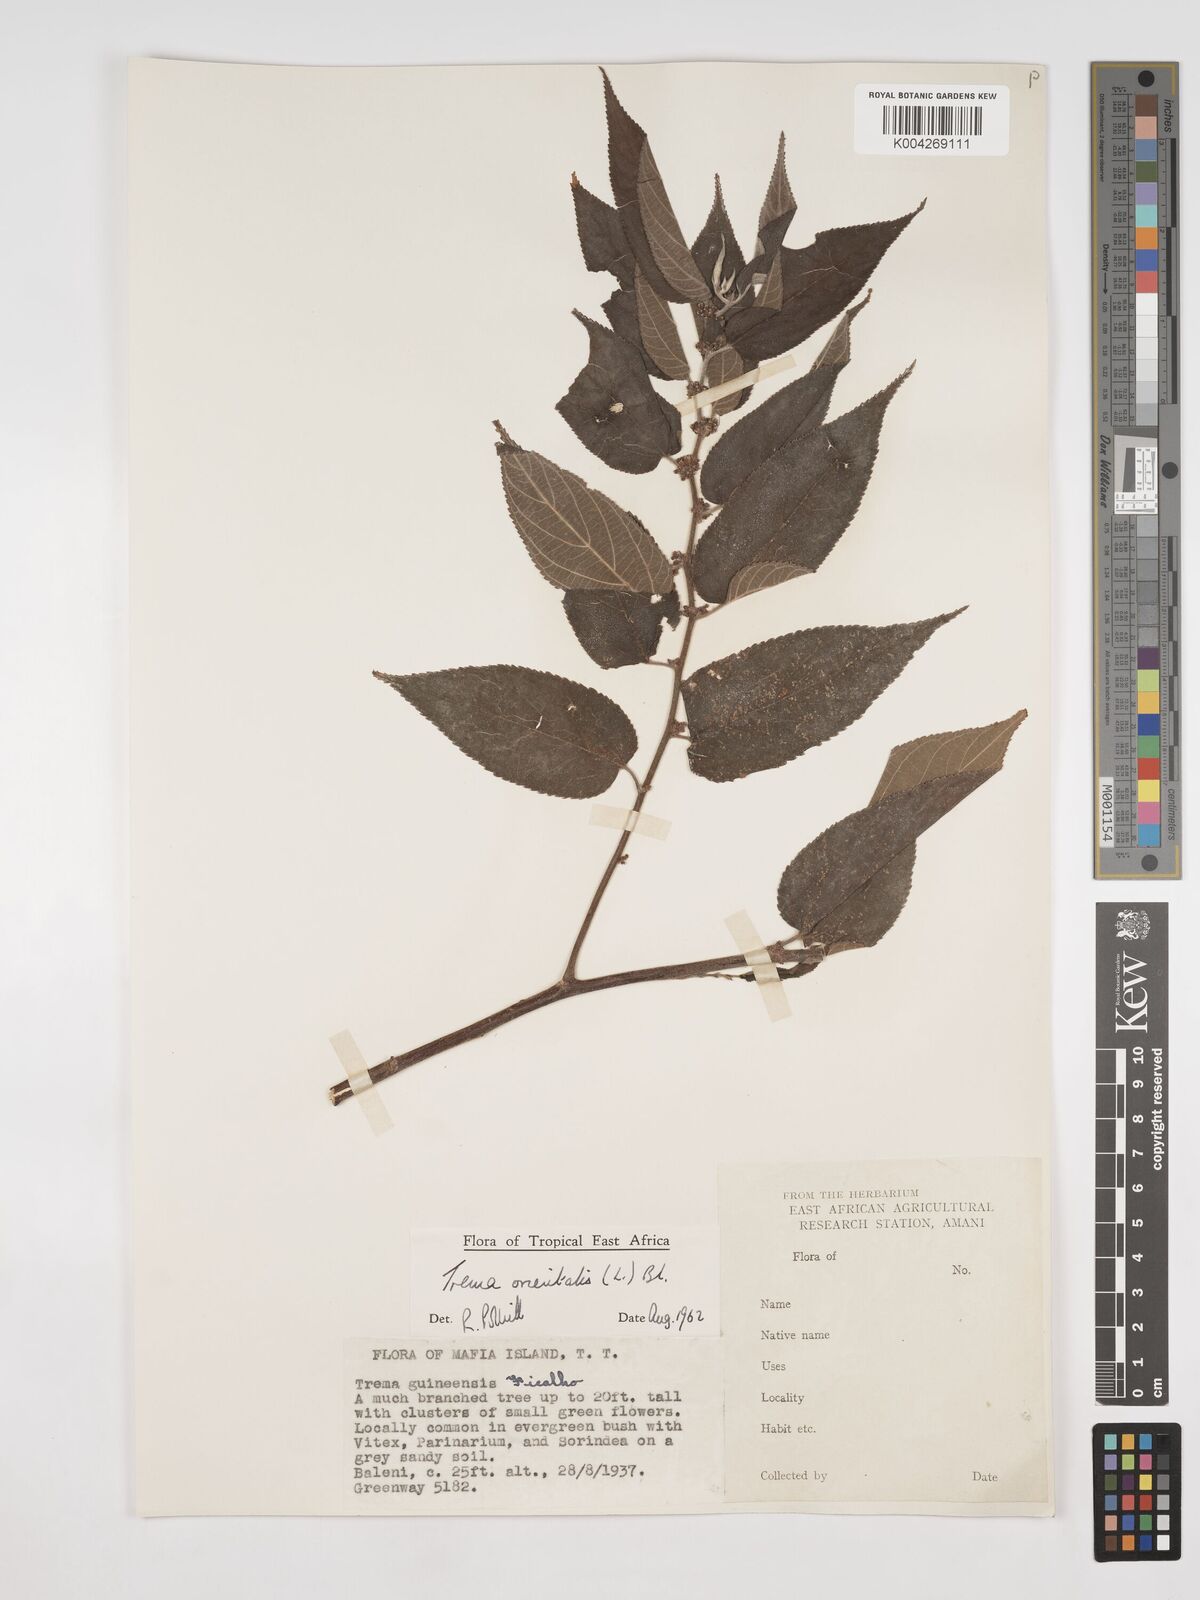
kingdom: Plantae
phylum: Tracheophyta
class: Magnoliopsida
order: Rosales
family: Cannabaceae
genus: Trema
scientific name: Trema orientale
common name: Indian charcoal tree
